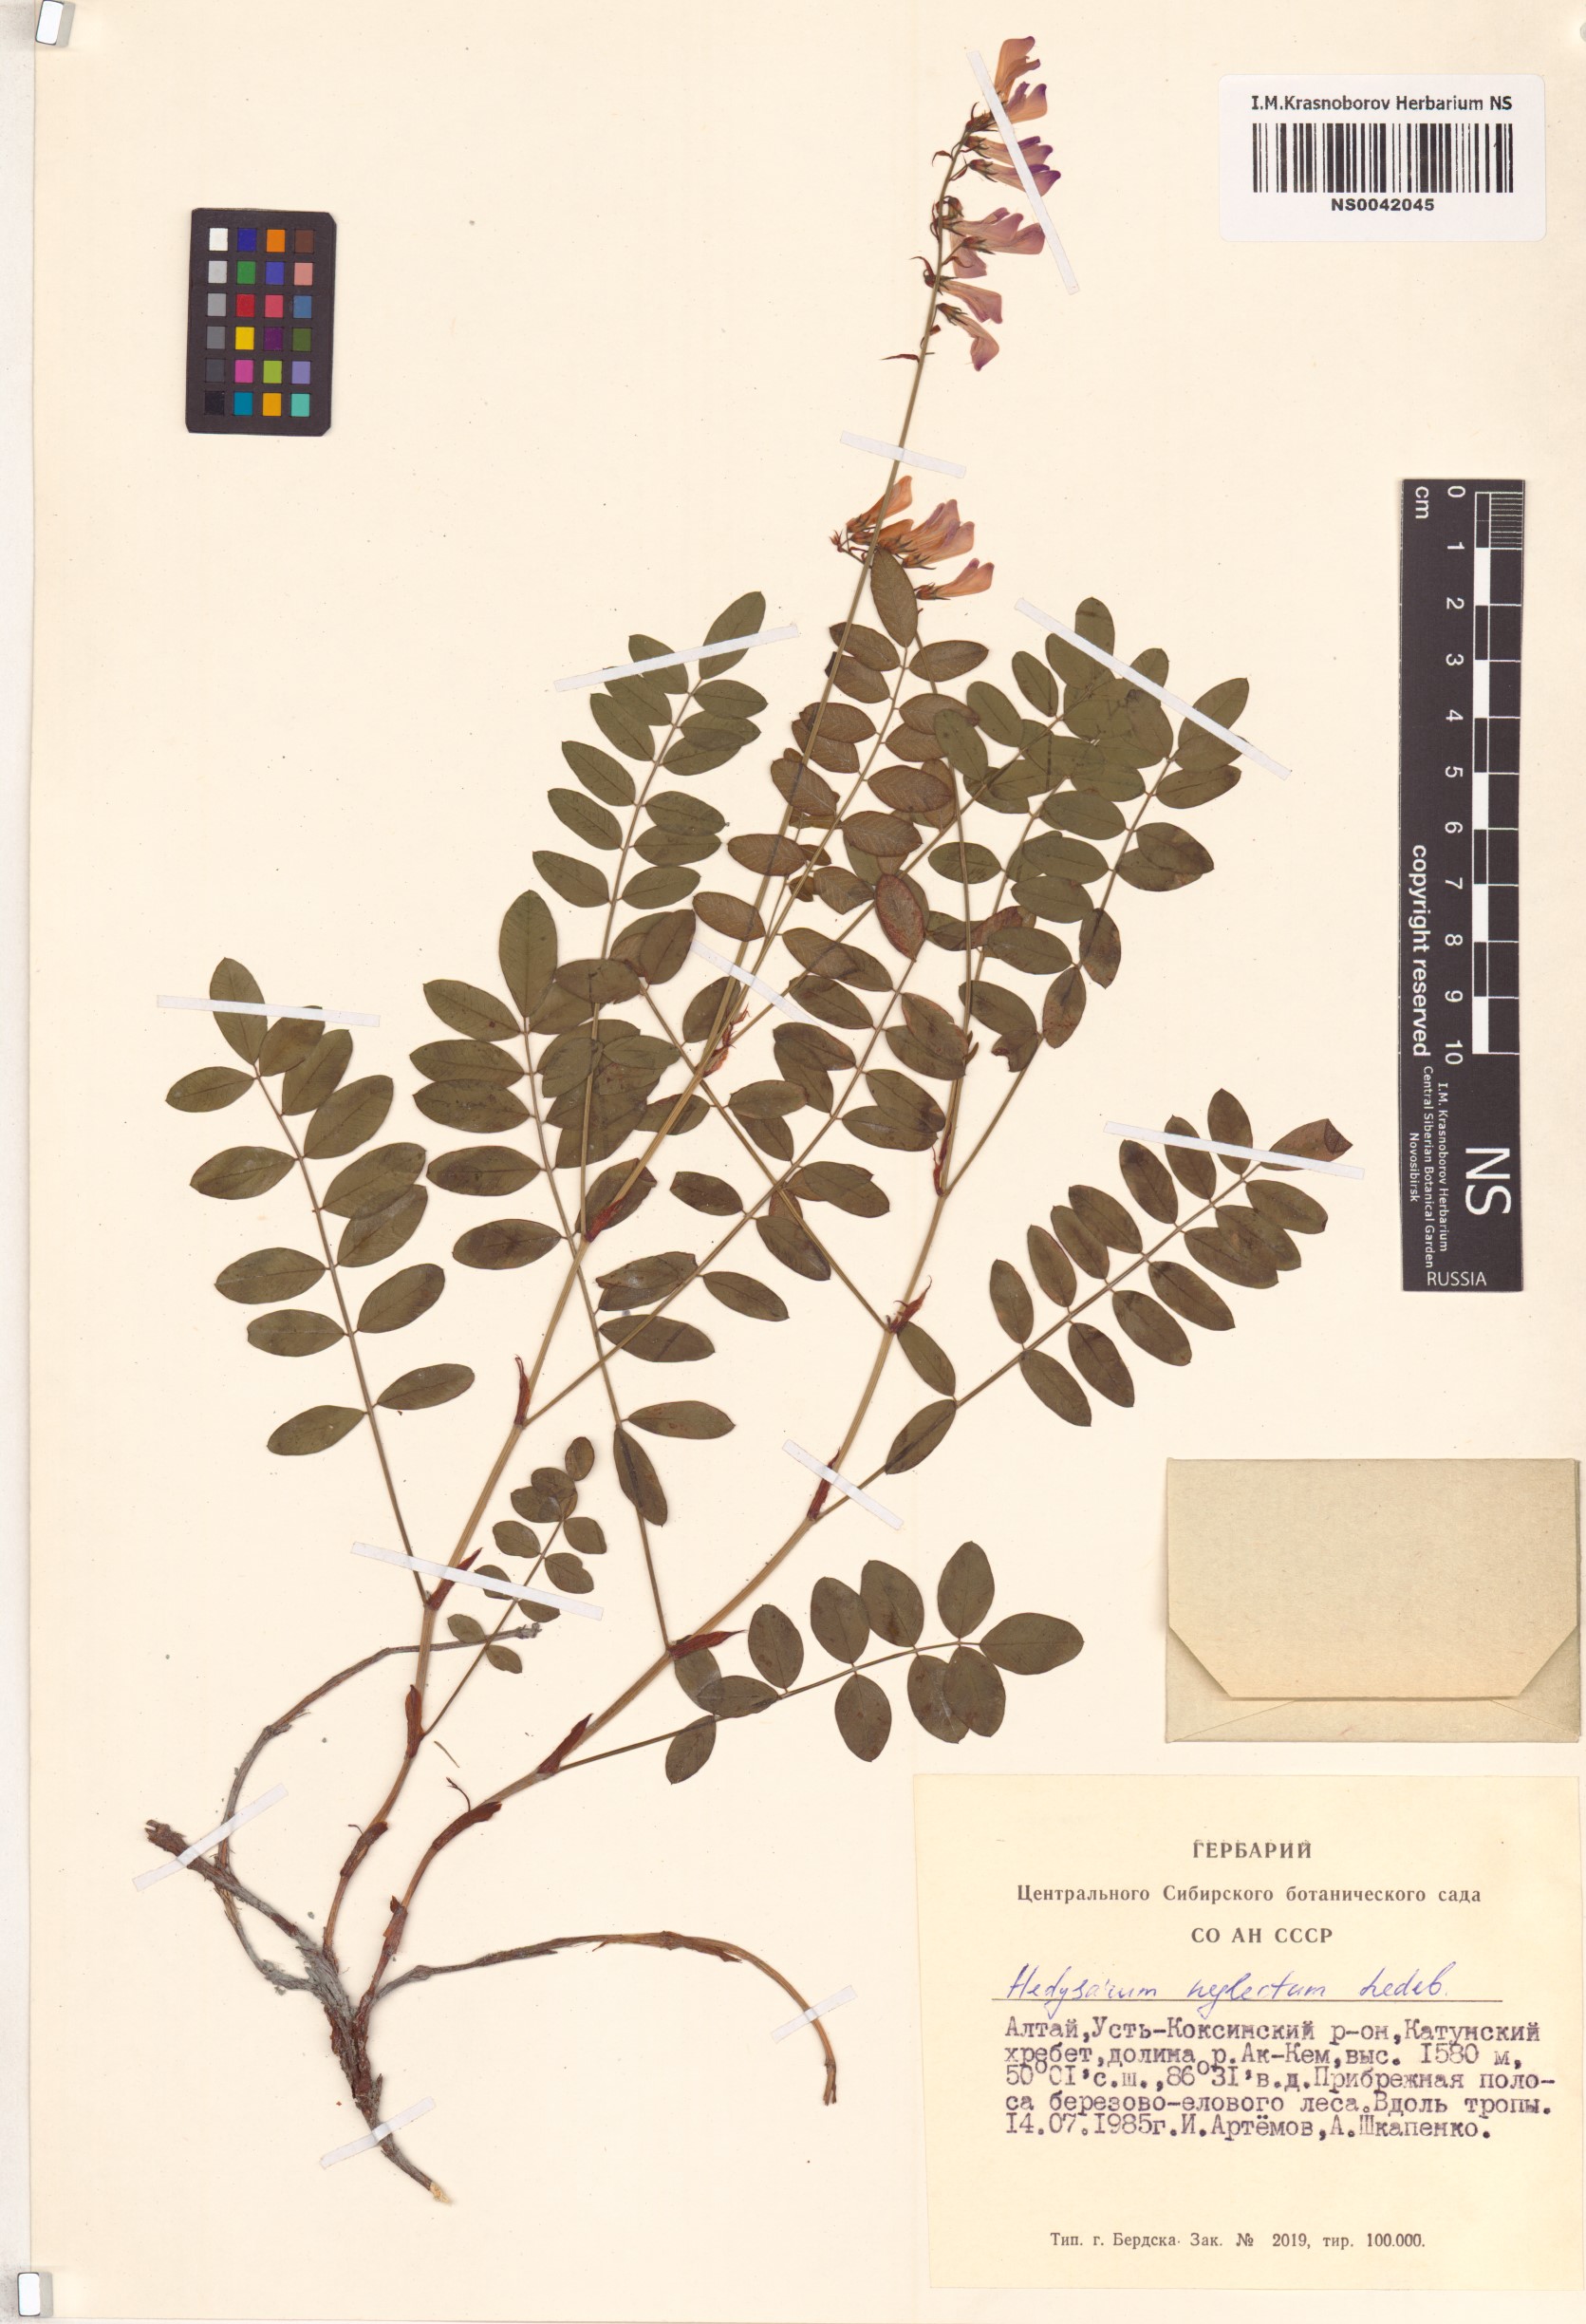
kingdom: Plantae
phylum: Tracheophyta
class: Magnoliopsida
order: Fabales
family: Fabaceae
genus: Hedysarum
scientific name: Hedysarum neglectum
